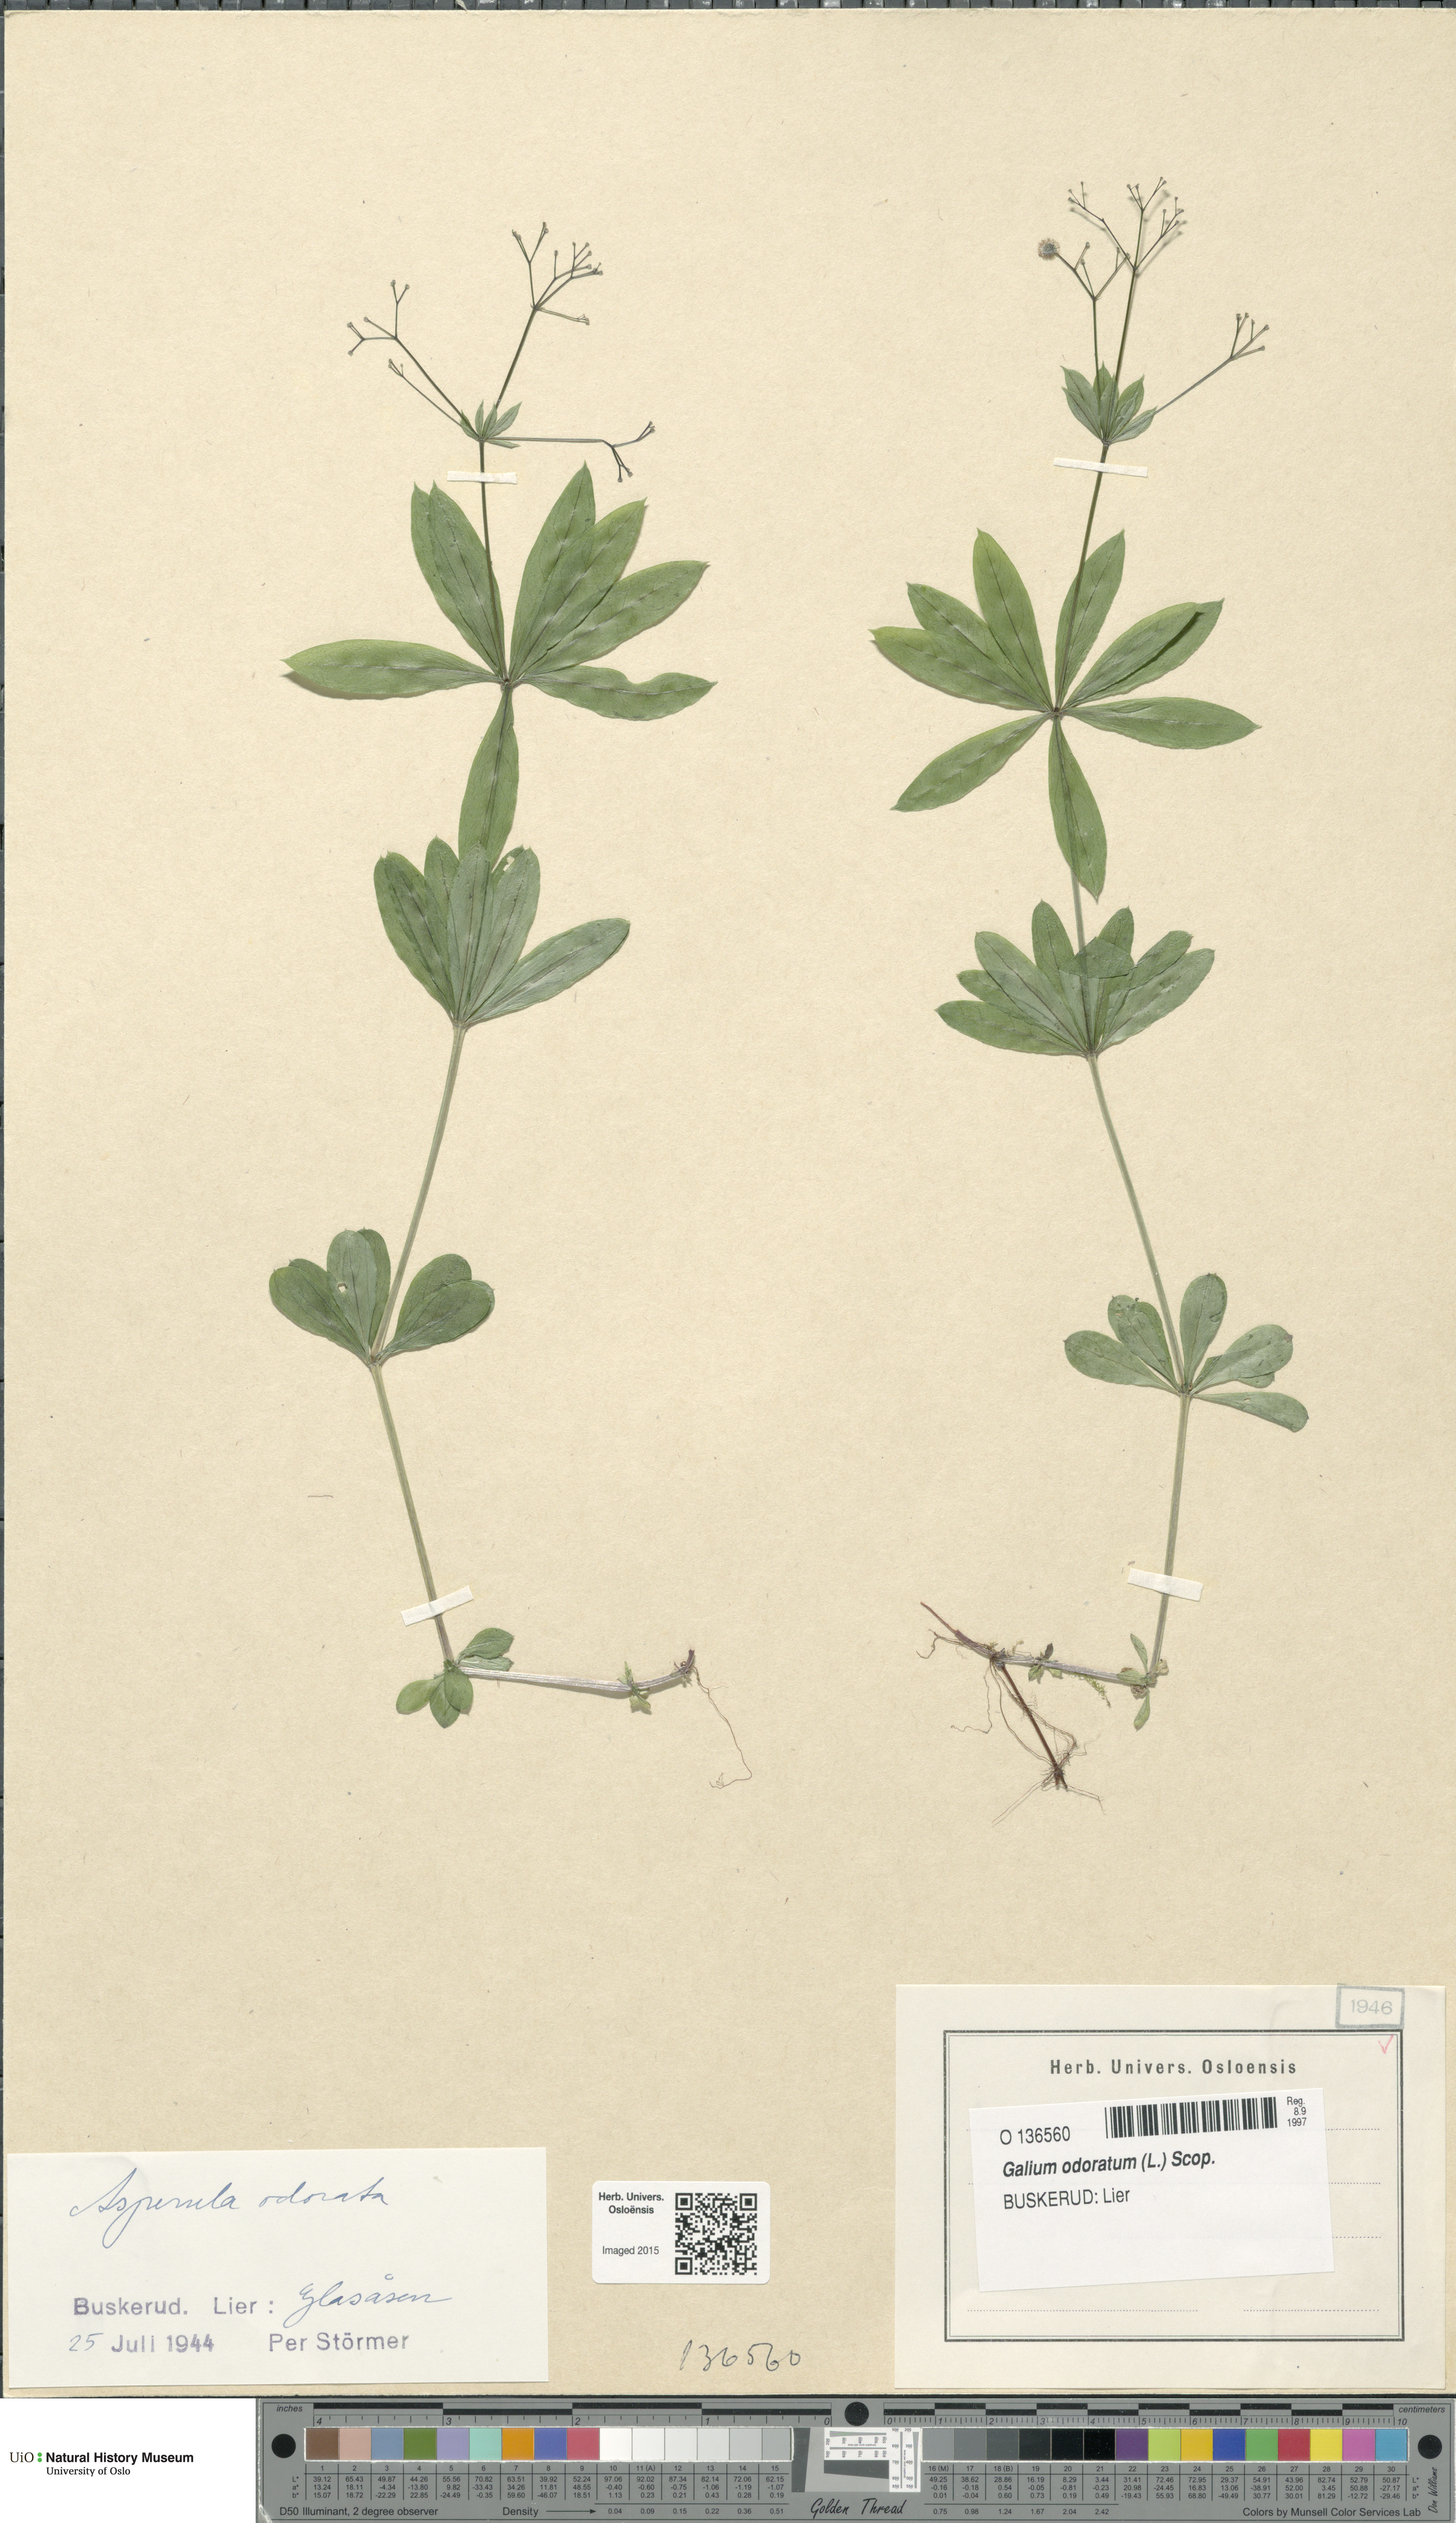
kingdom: Plantae
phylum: Tracheophyta
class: Magnoliopsida
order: Gentianales
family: Rubiaceae
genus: Galium
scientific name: Galium odoratum
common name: Sweet woodruff
